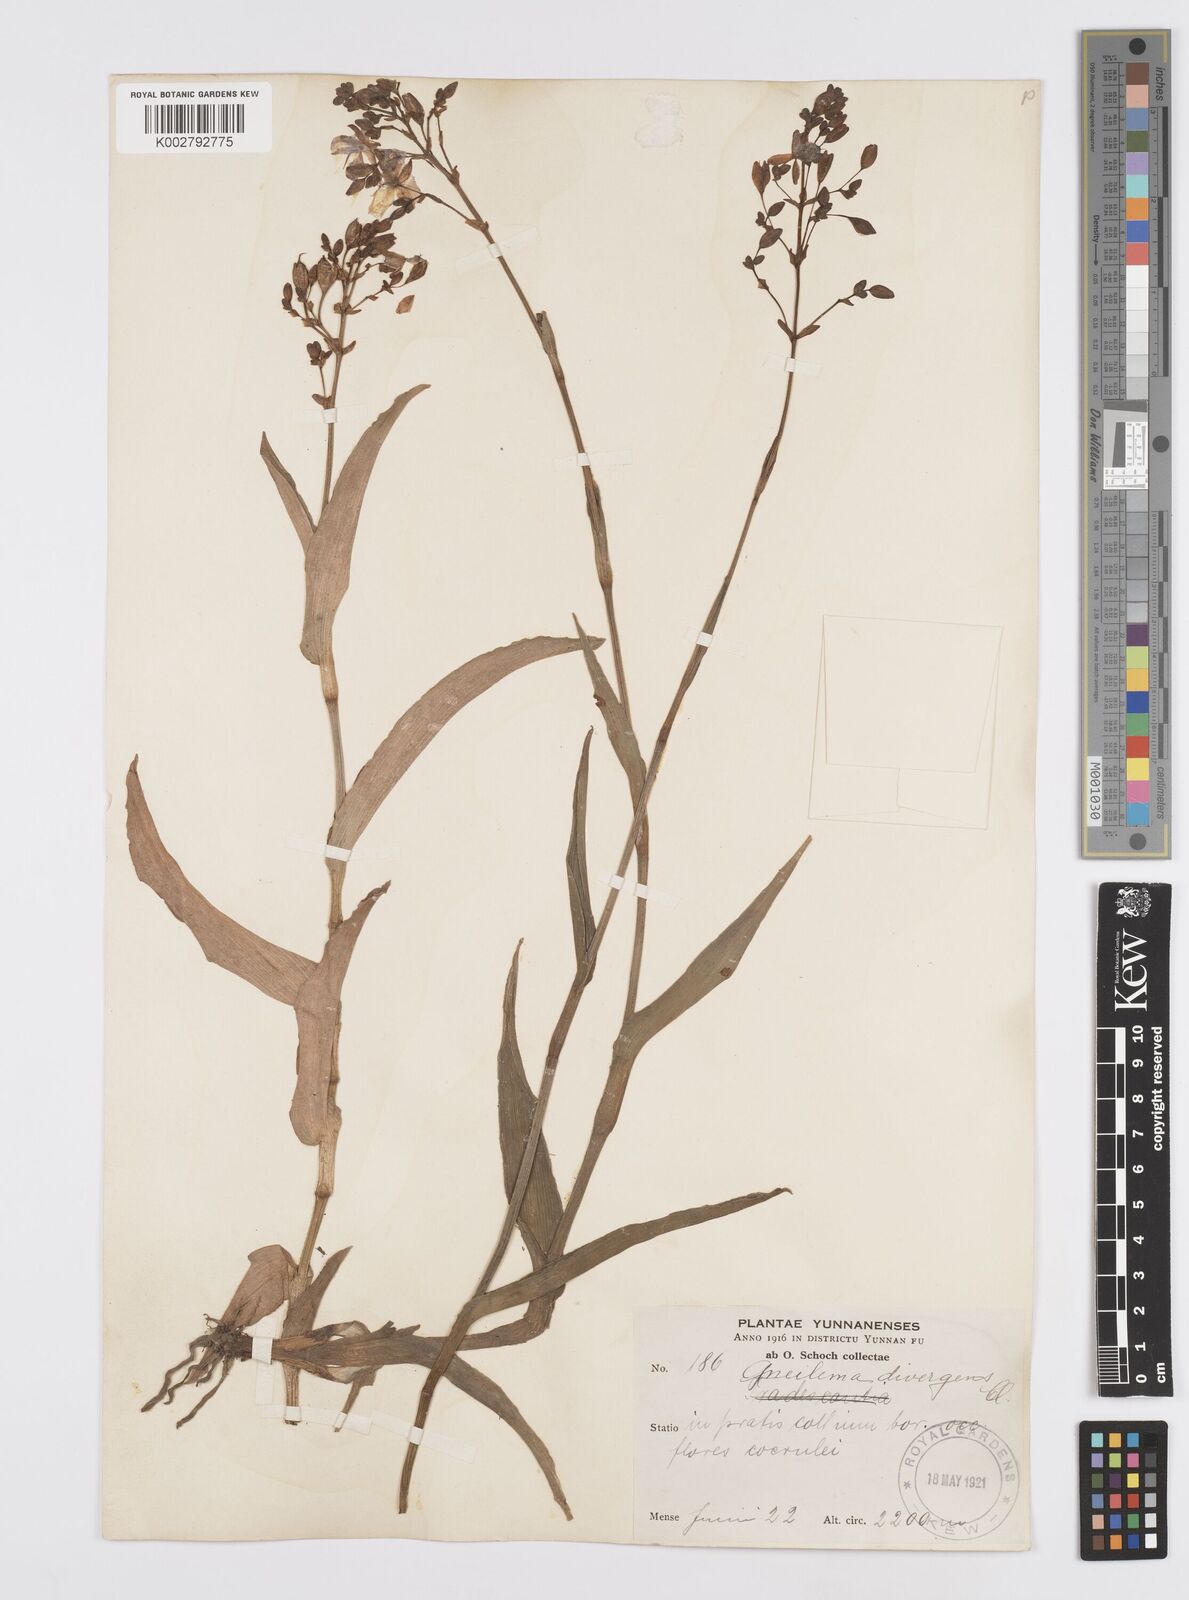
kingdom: Plantae
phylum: Tracheophyta
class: Liliopsida
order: Commelinales
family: Commelinaceae
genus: Murdannia
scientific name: Murdannia divergens
